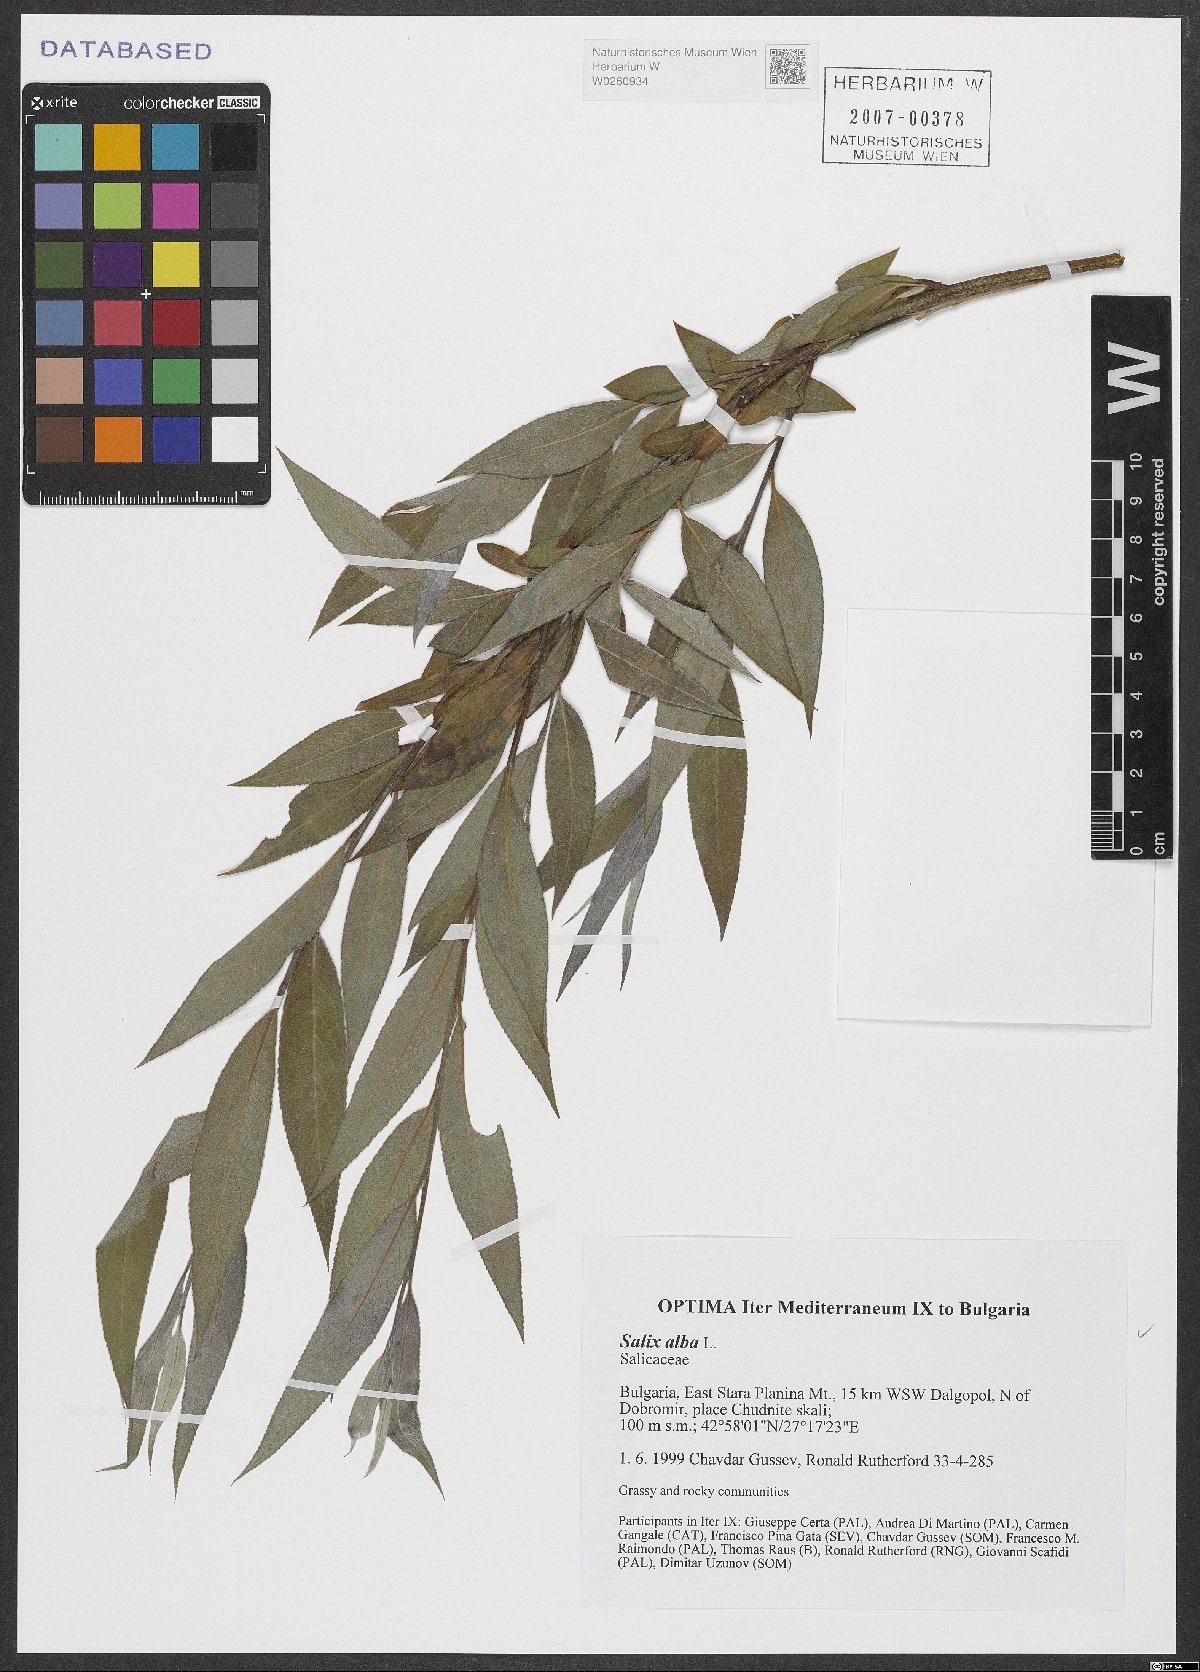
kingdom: Plantae
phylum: Tracheophyta
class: Magnoliopsida
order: Malpighiales
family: Salicaceae
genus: Salix
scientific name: Salix alba
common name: White willow
